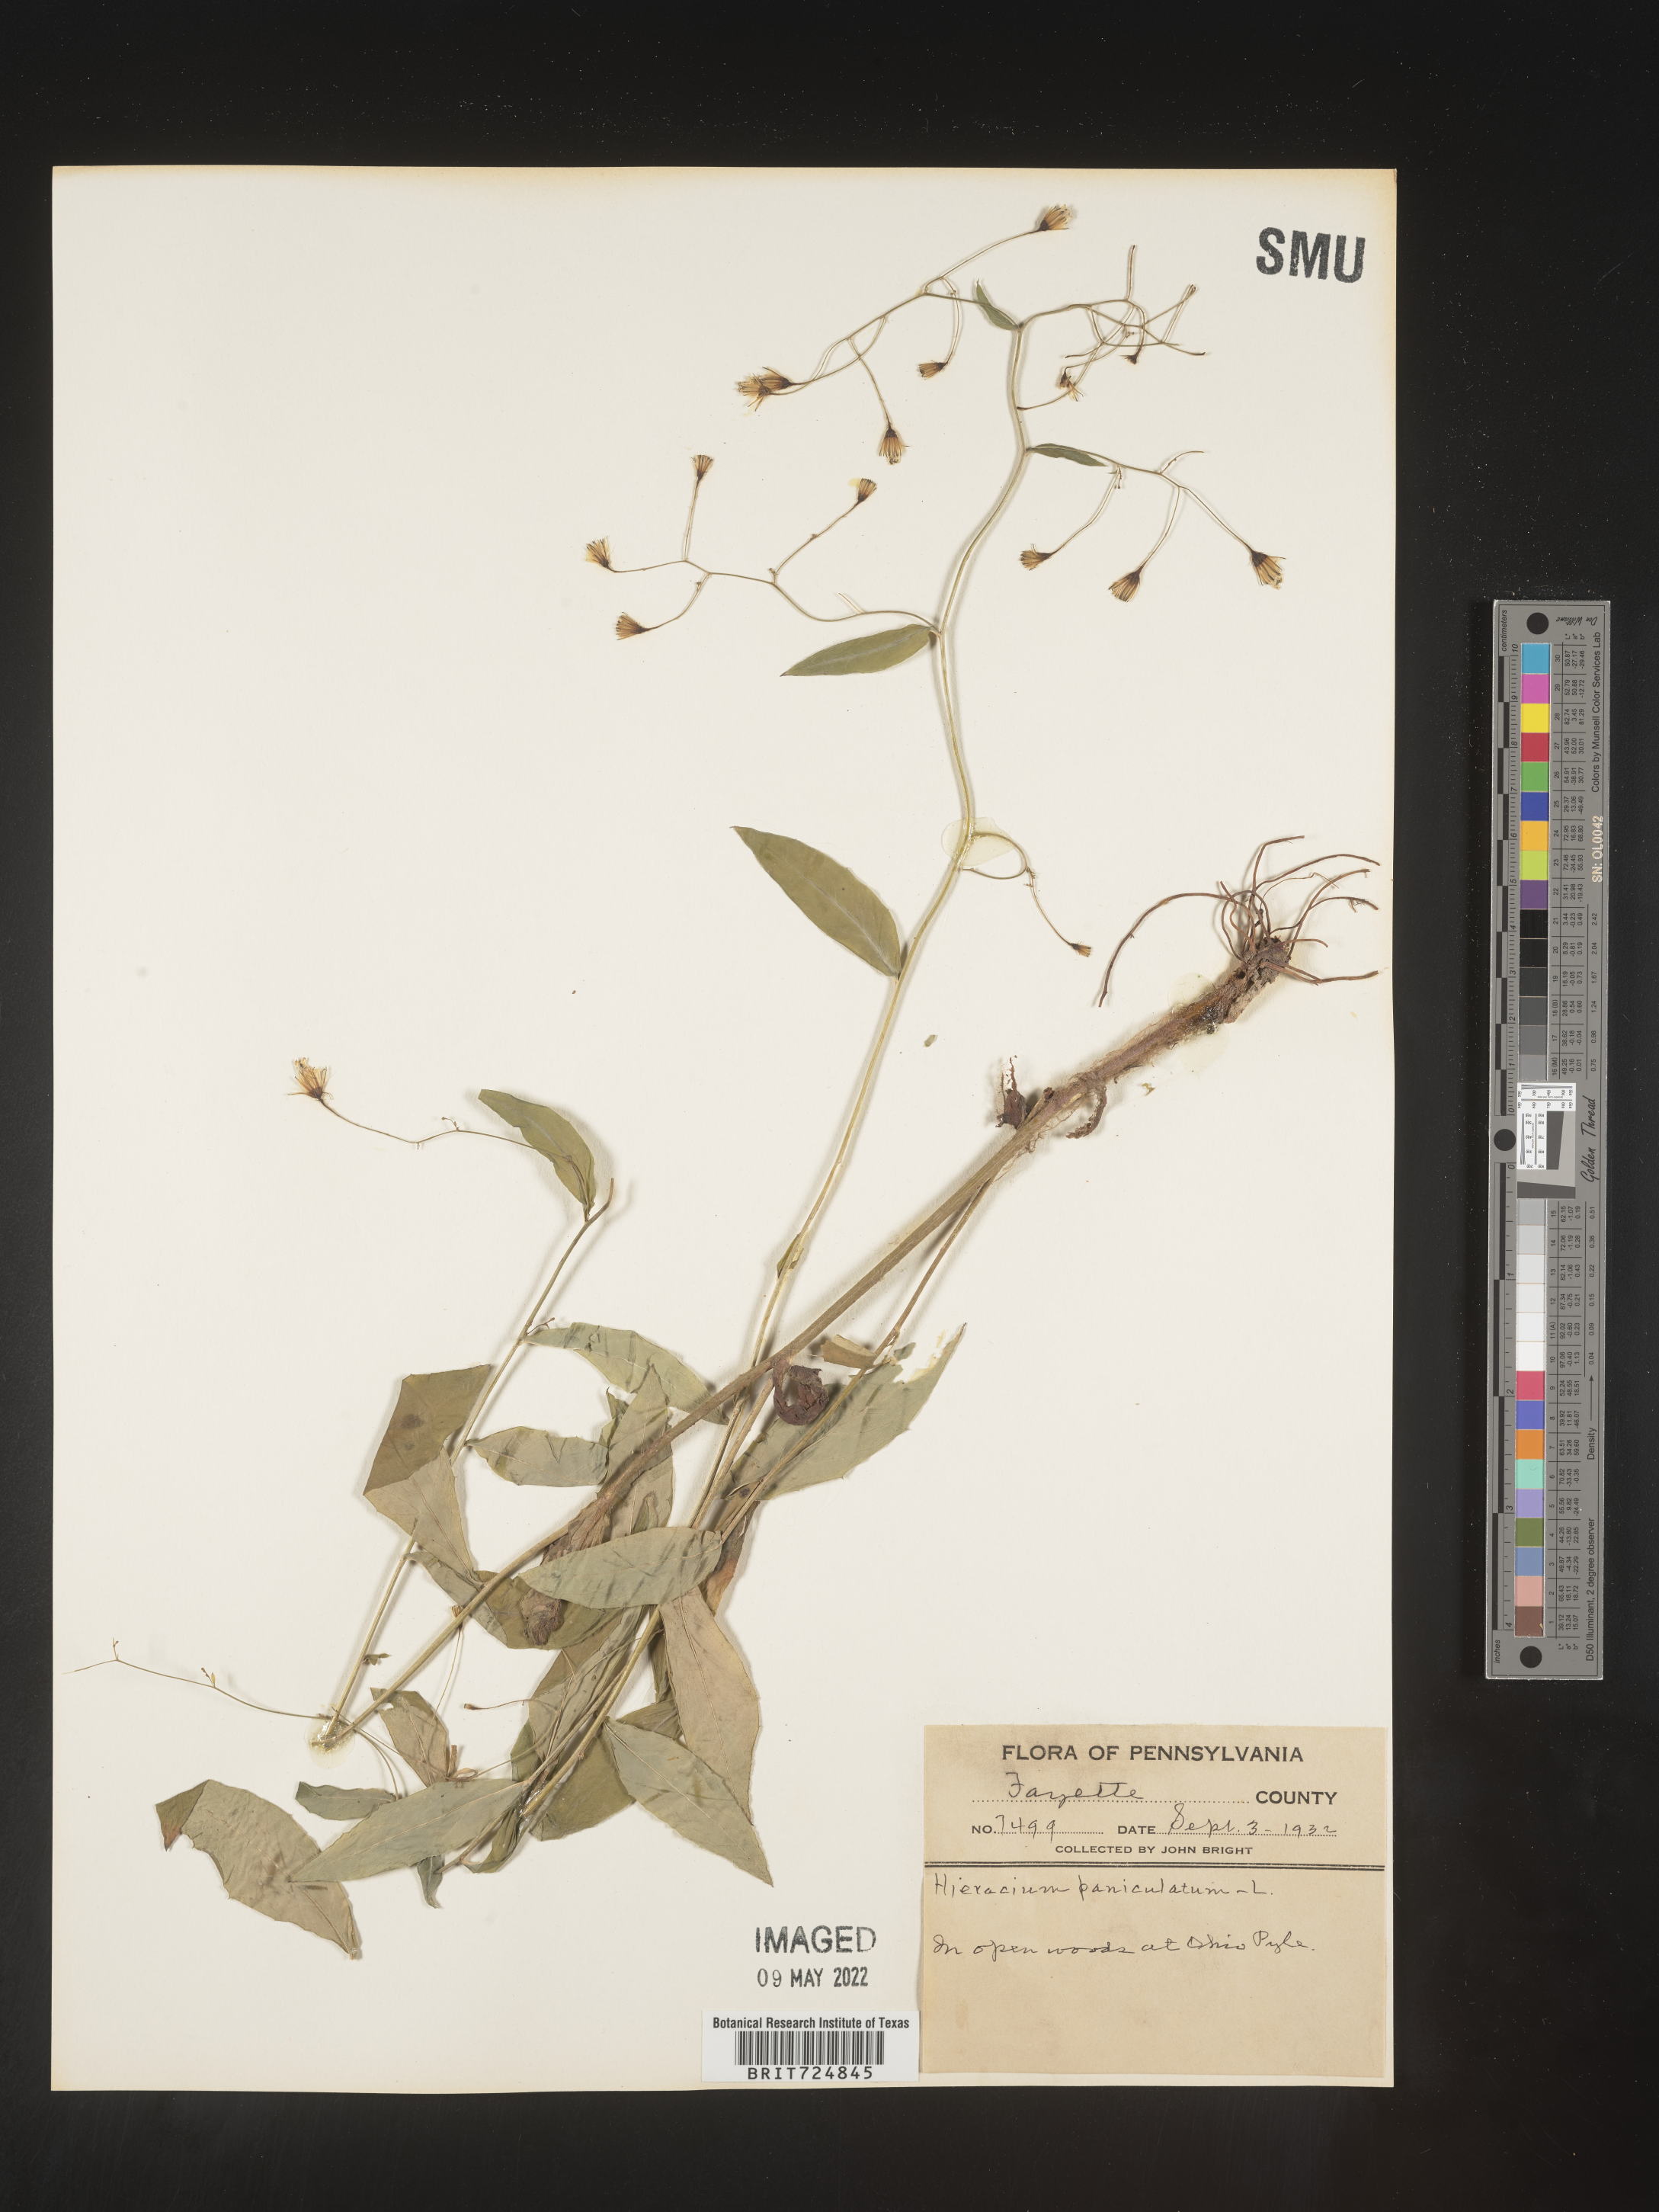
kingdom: Plantae
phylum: Tracheophyta
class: Magnoliopsida
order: Asterales
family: Asteraceae
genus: Hieracium
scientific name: Hieracium paniculatum
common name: Allegheny hawkweed
